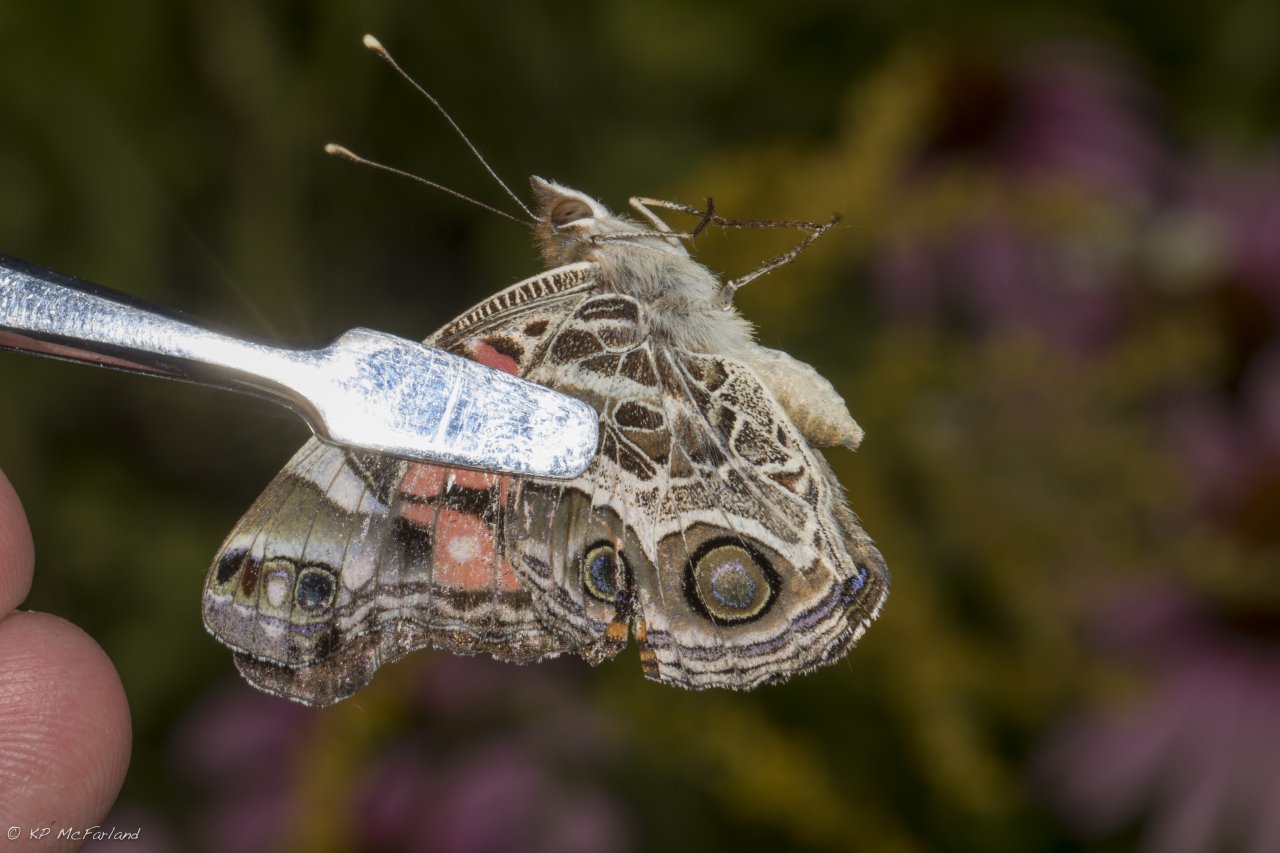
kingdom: Animalia
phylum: Arthropoda
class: Insecta
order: Lepidoptera
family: Nymphalidae
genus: Vanessa
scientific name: Vanessa virginiensis
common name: American Lady
